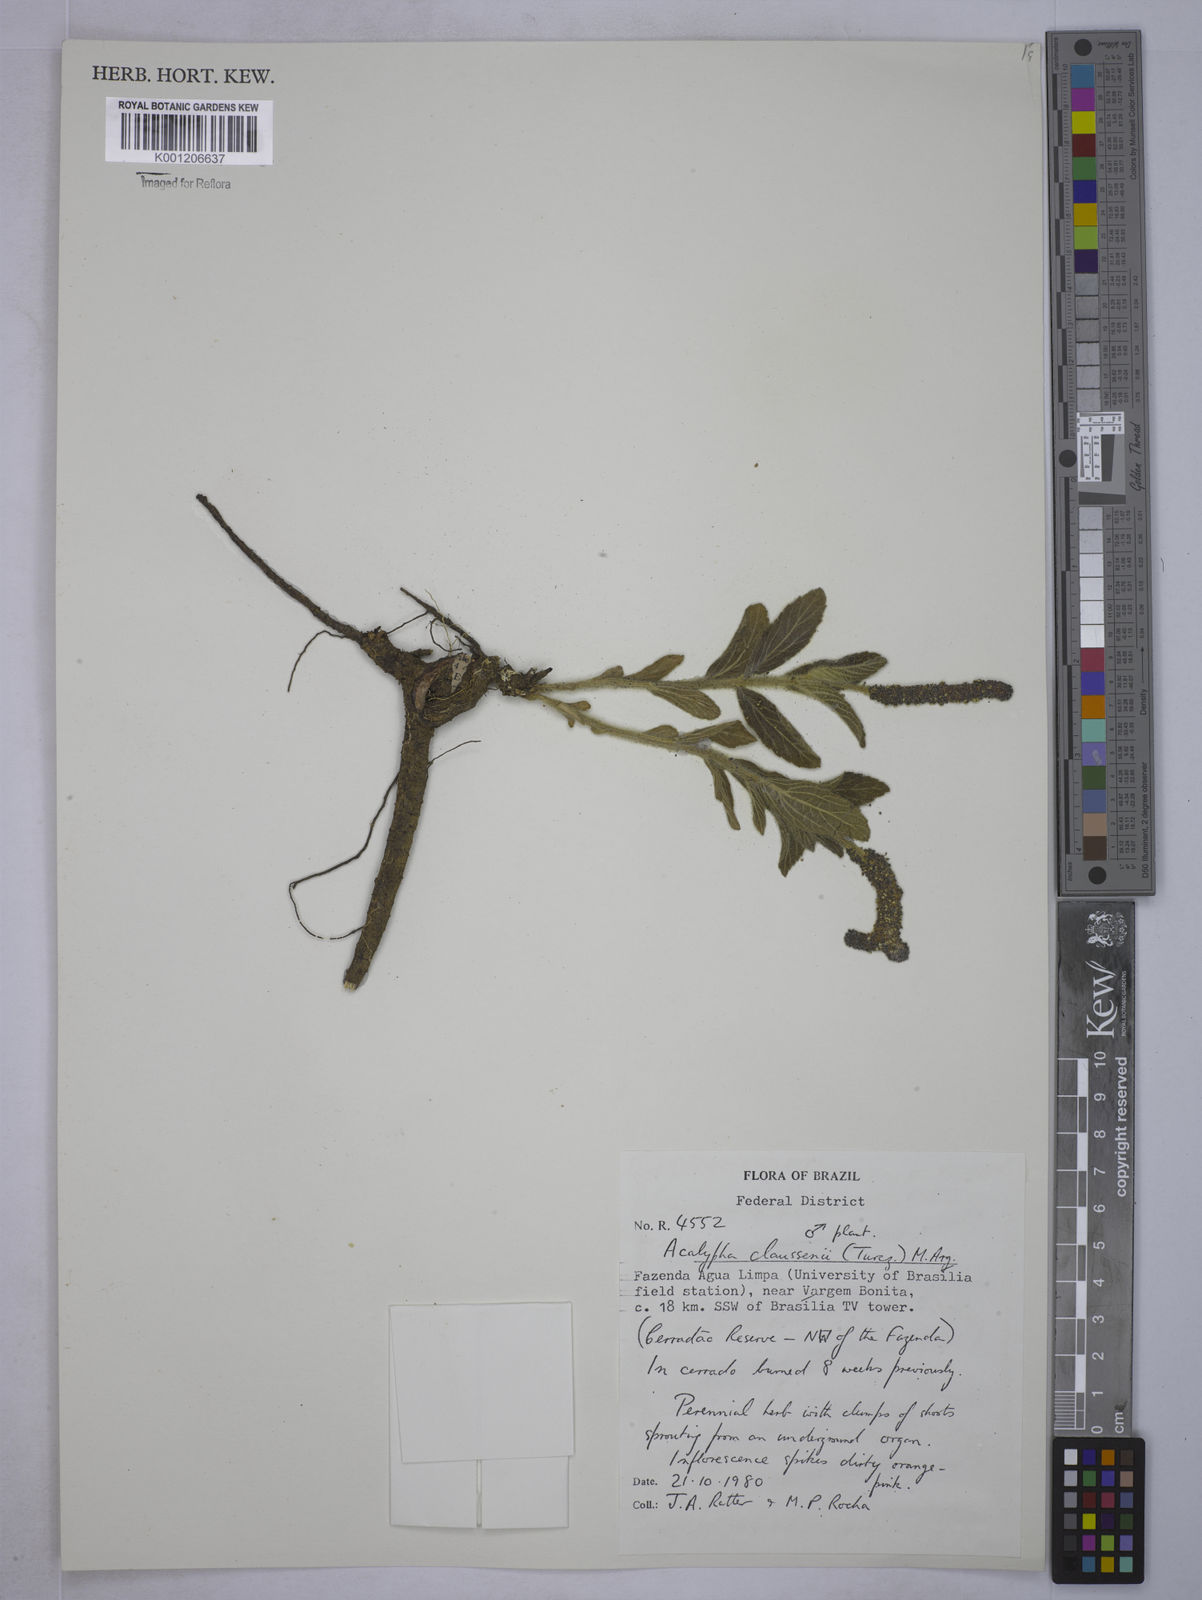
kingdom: Plantae
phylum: Tracheophyta
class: Magnoliopsida
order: Malpighiales
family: Euphorbiaceae
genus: Acalypha
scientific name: Acalypha
